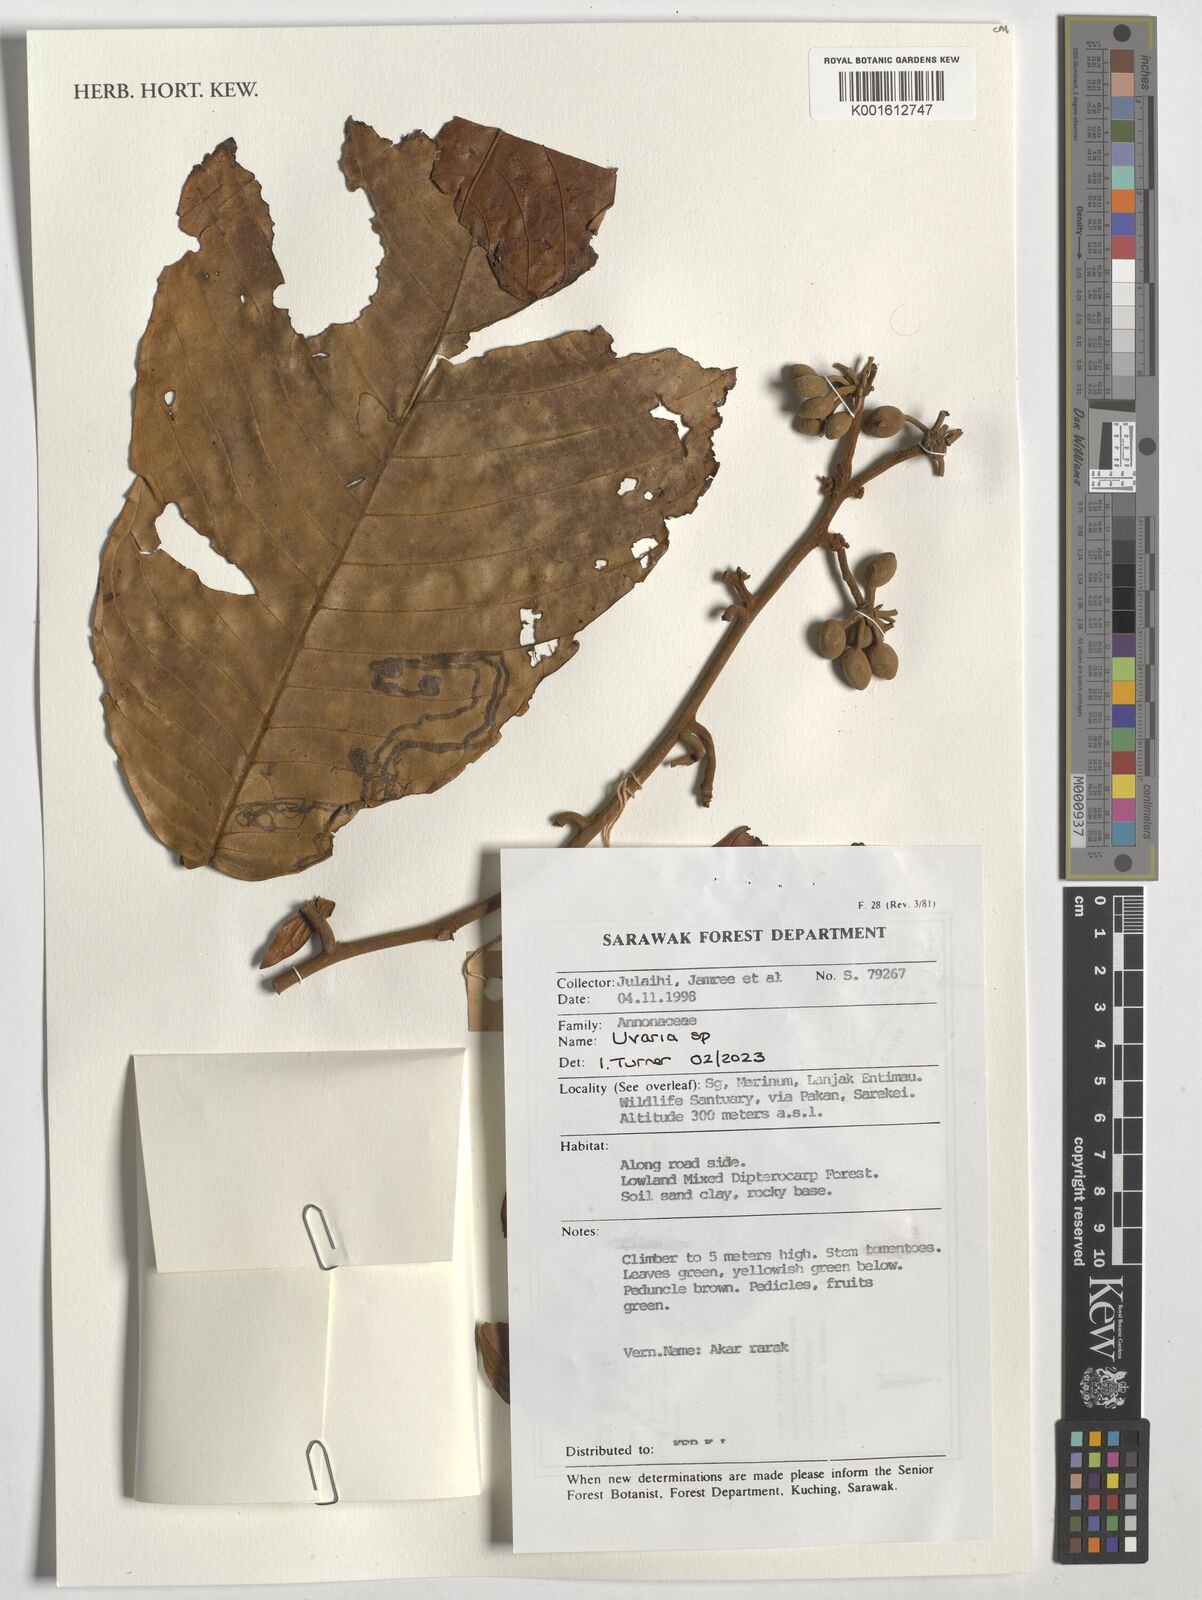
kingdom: Plantae
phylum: Tracheophyta
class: Magnoliopsida
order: Magnoliales
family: Annonaceae
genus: Uvaria
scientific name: Uvaria
